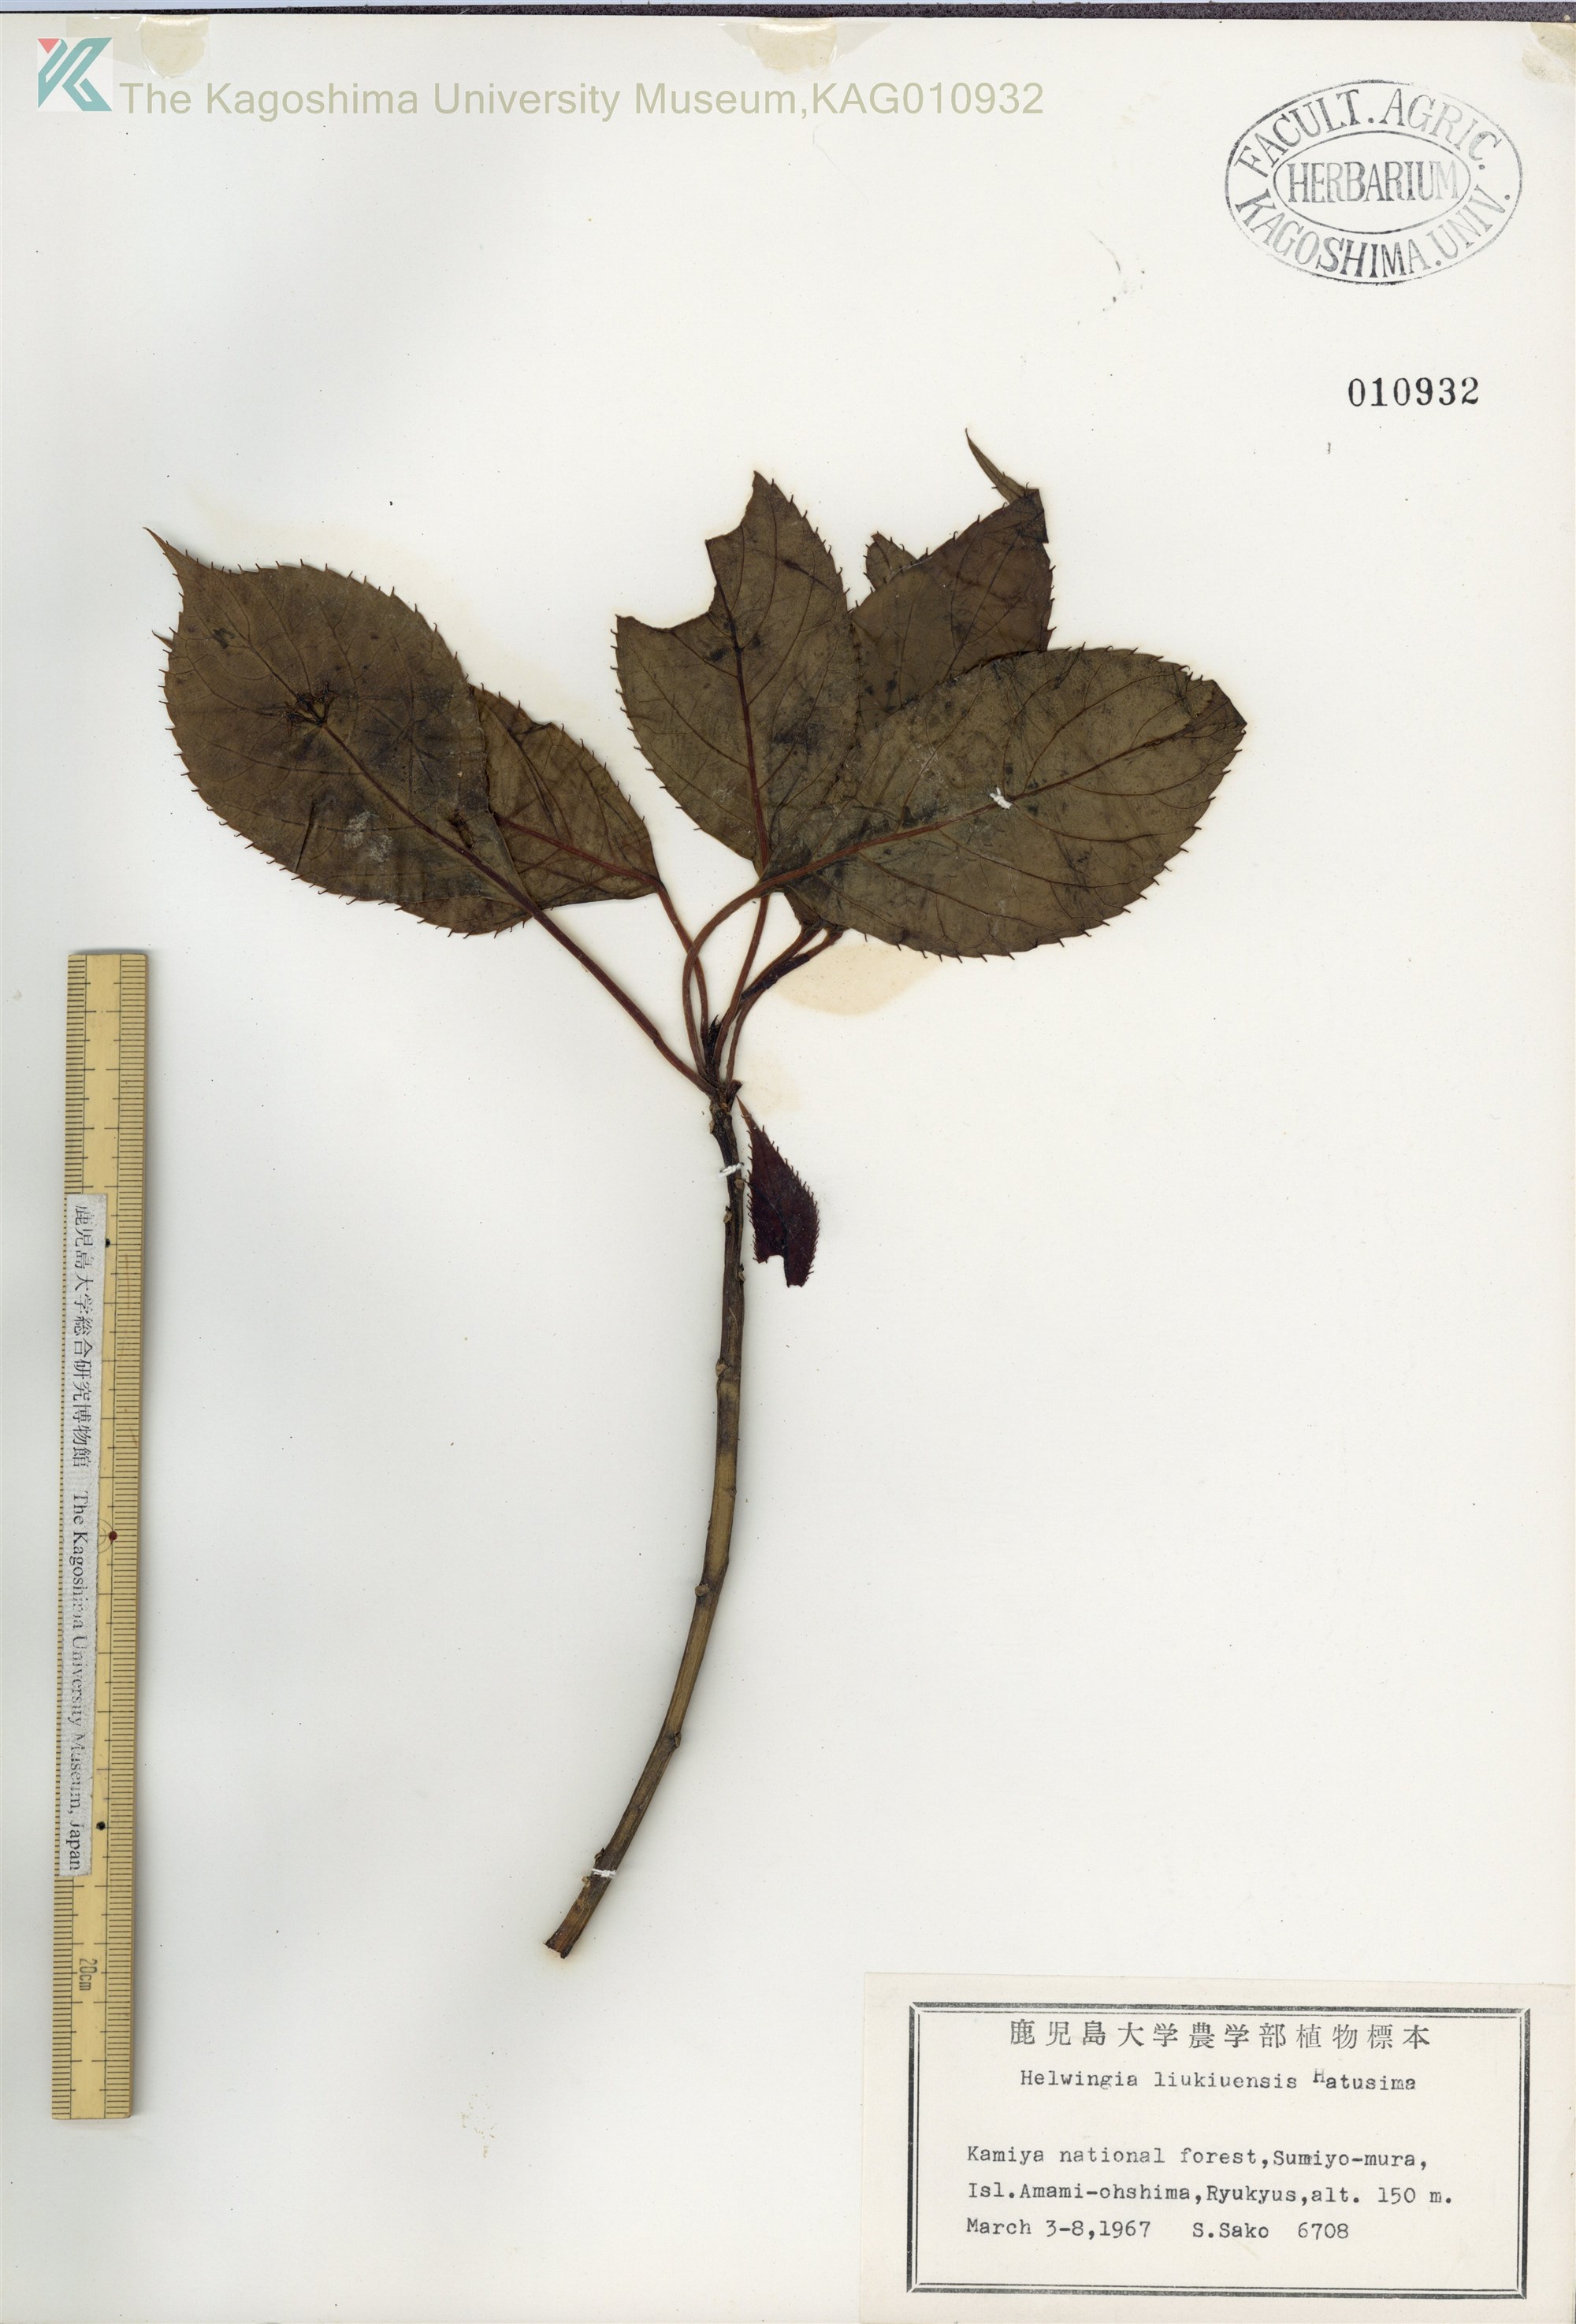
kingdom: Plantae
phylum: Tracheophyta
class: Magnoliopsida
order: Aquifoliales
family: Helwingiaceae
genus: Helwingia
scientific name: Helwingia japonica
